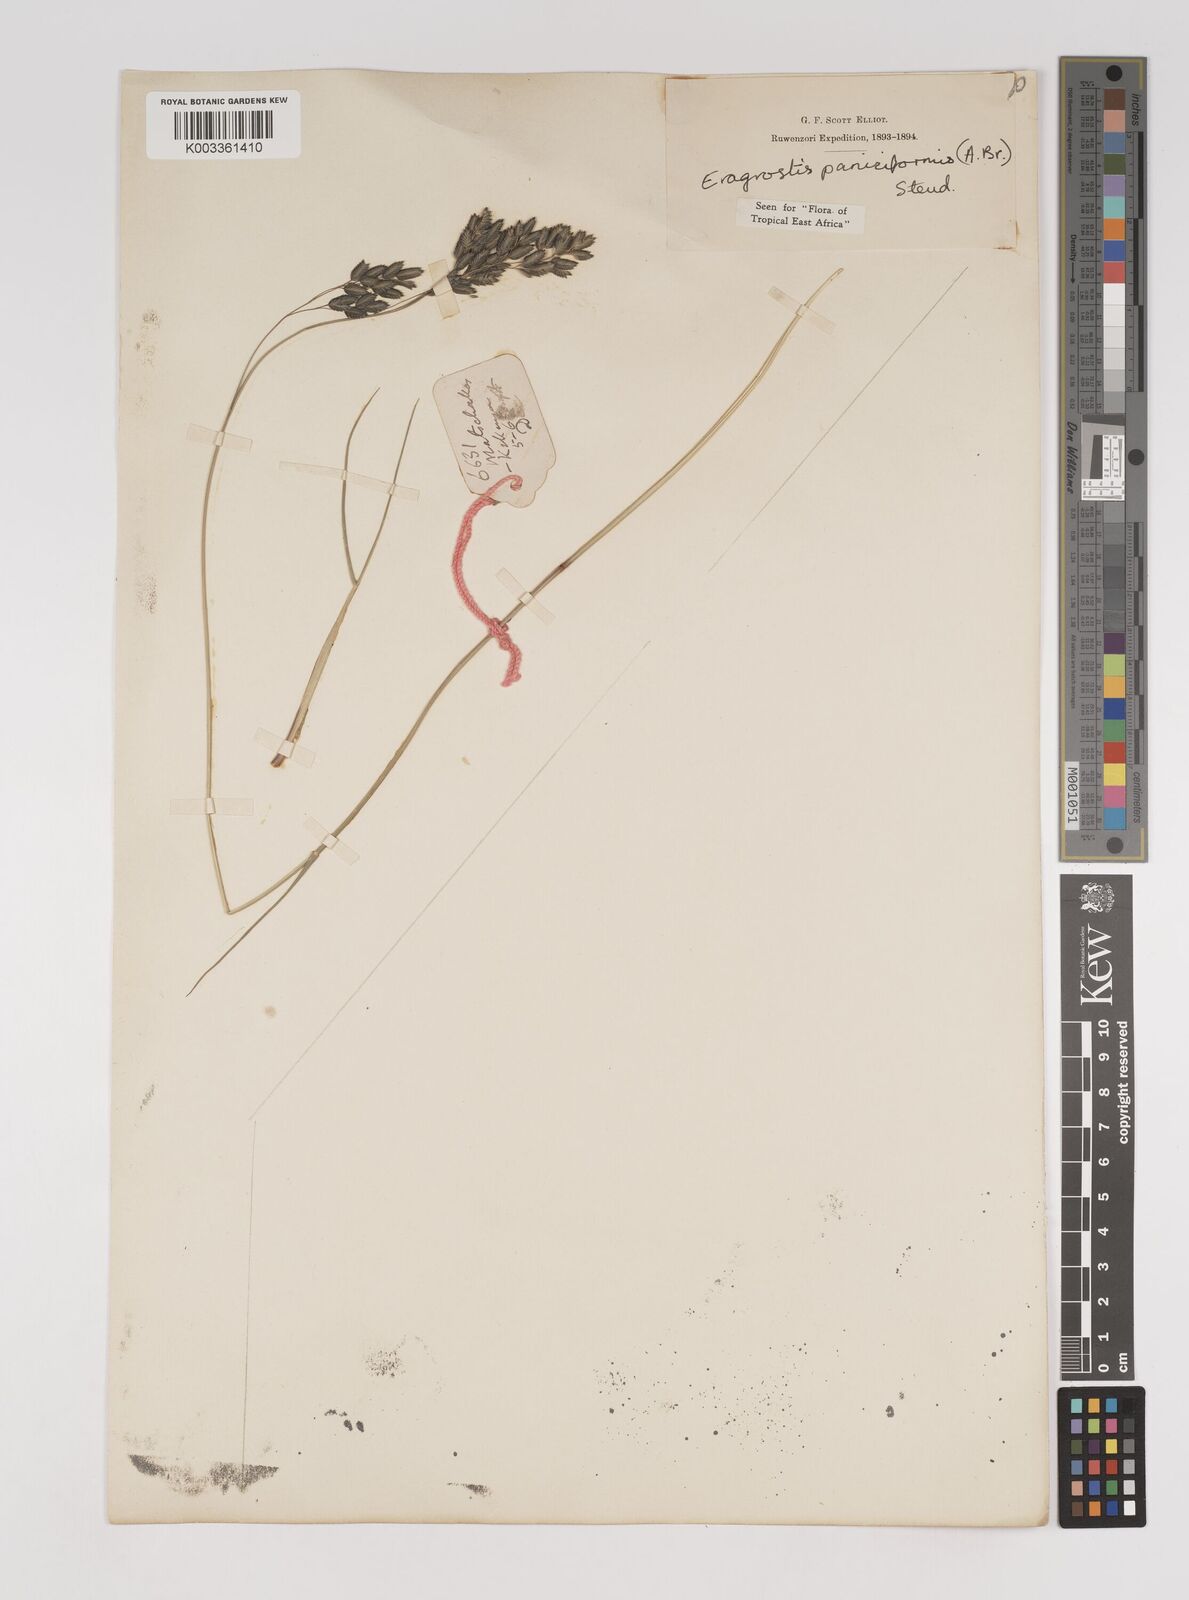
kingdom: Plantae
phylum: Tracheophyta
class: Liliopsida
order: Poales
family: Poaceae
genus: Eragrostis
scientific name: Eragrostis paniciformis
